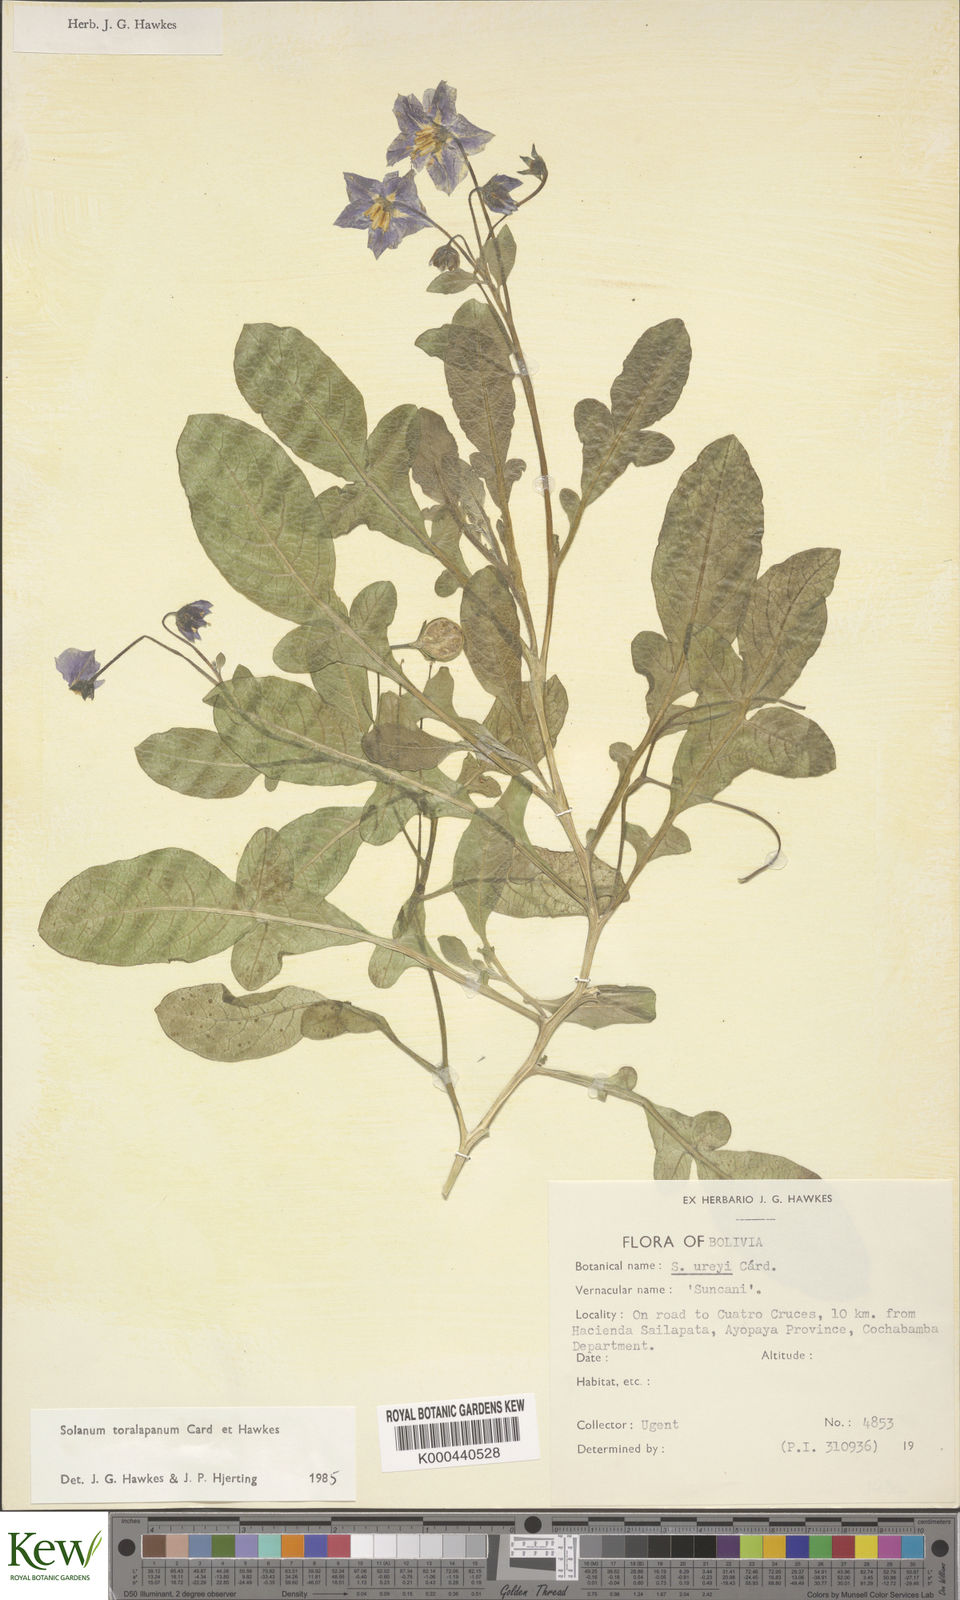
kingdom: Plantae
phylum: Tracheophyta
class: Magnoliopsida
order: Solanales
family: Solanaceae
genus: Solanum
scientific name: Solanum boliviense
